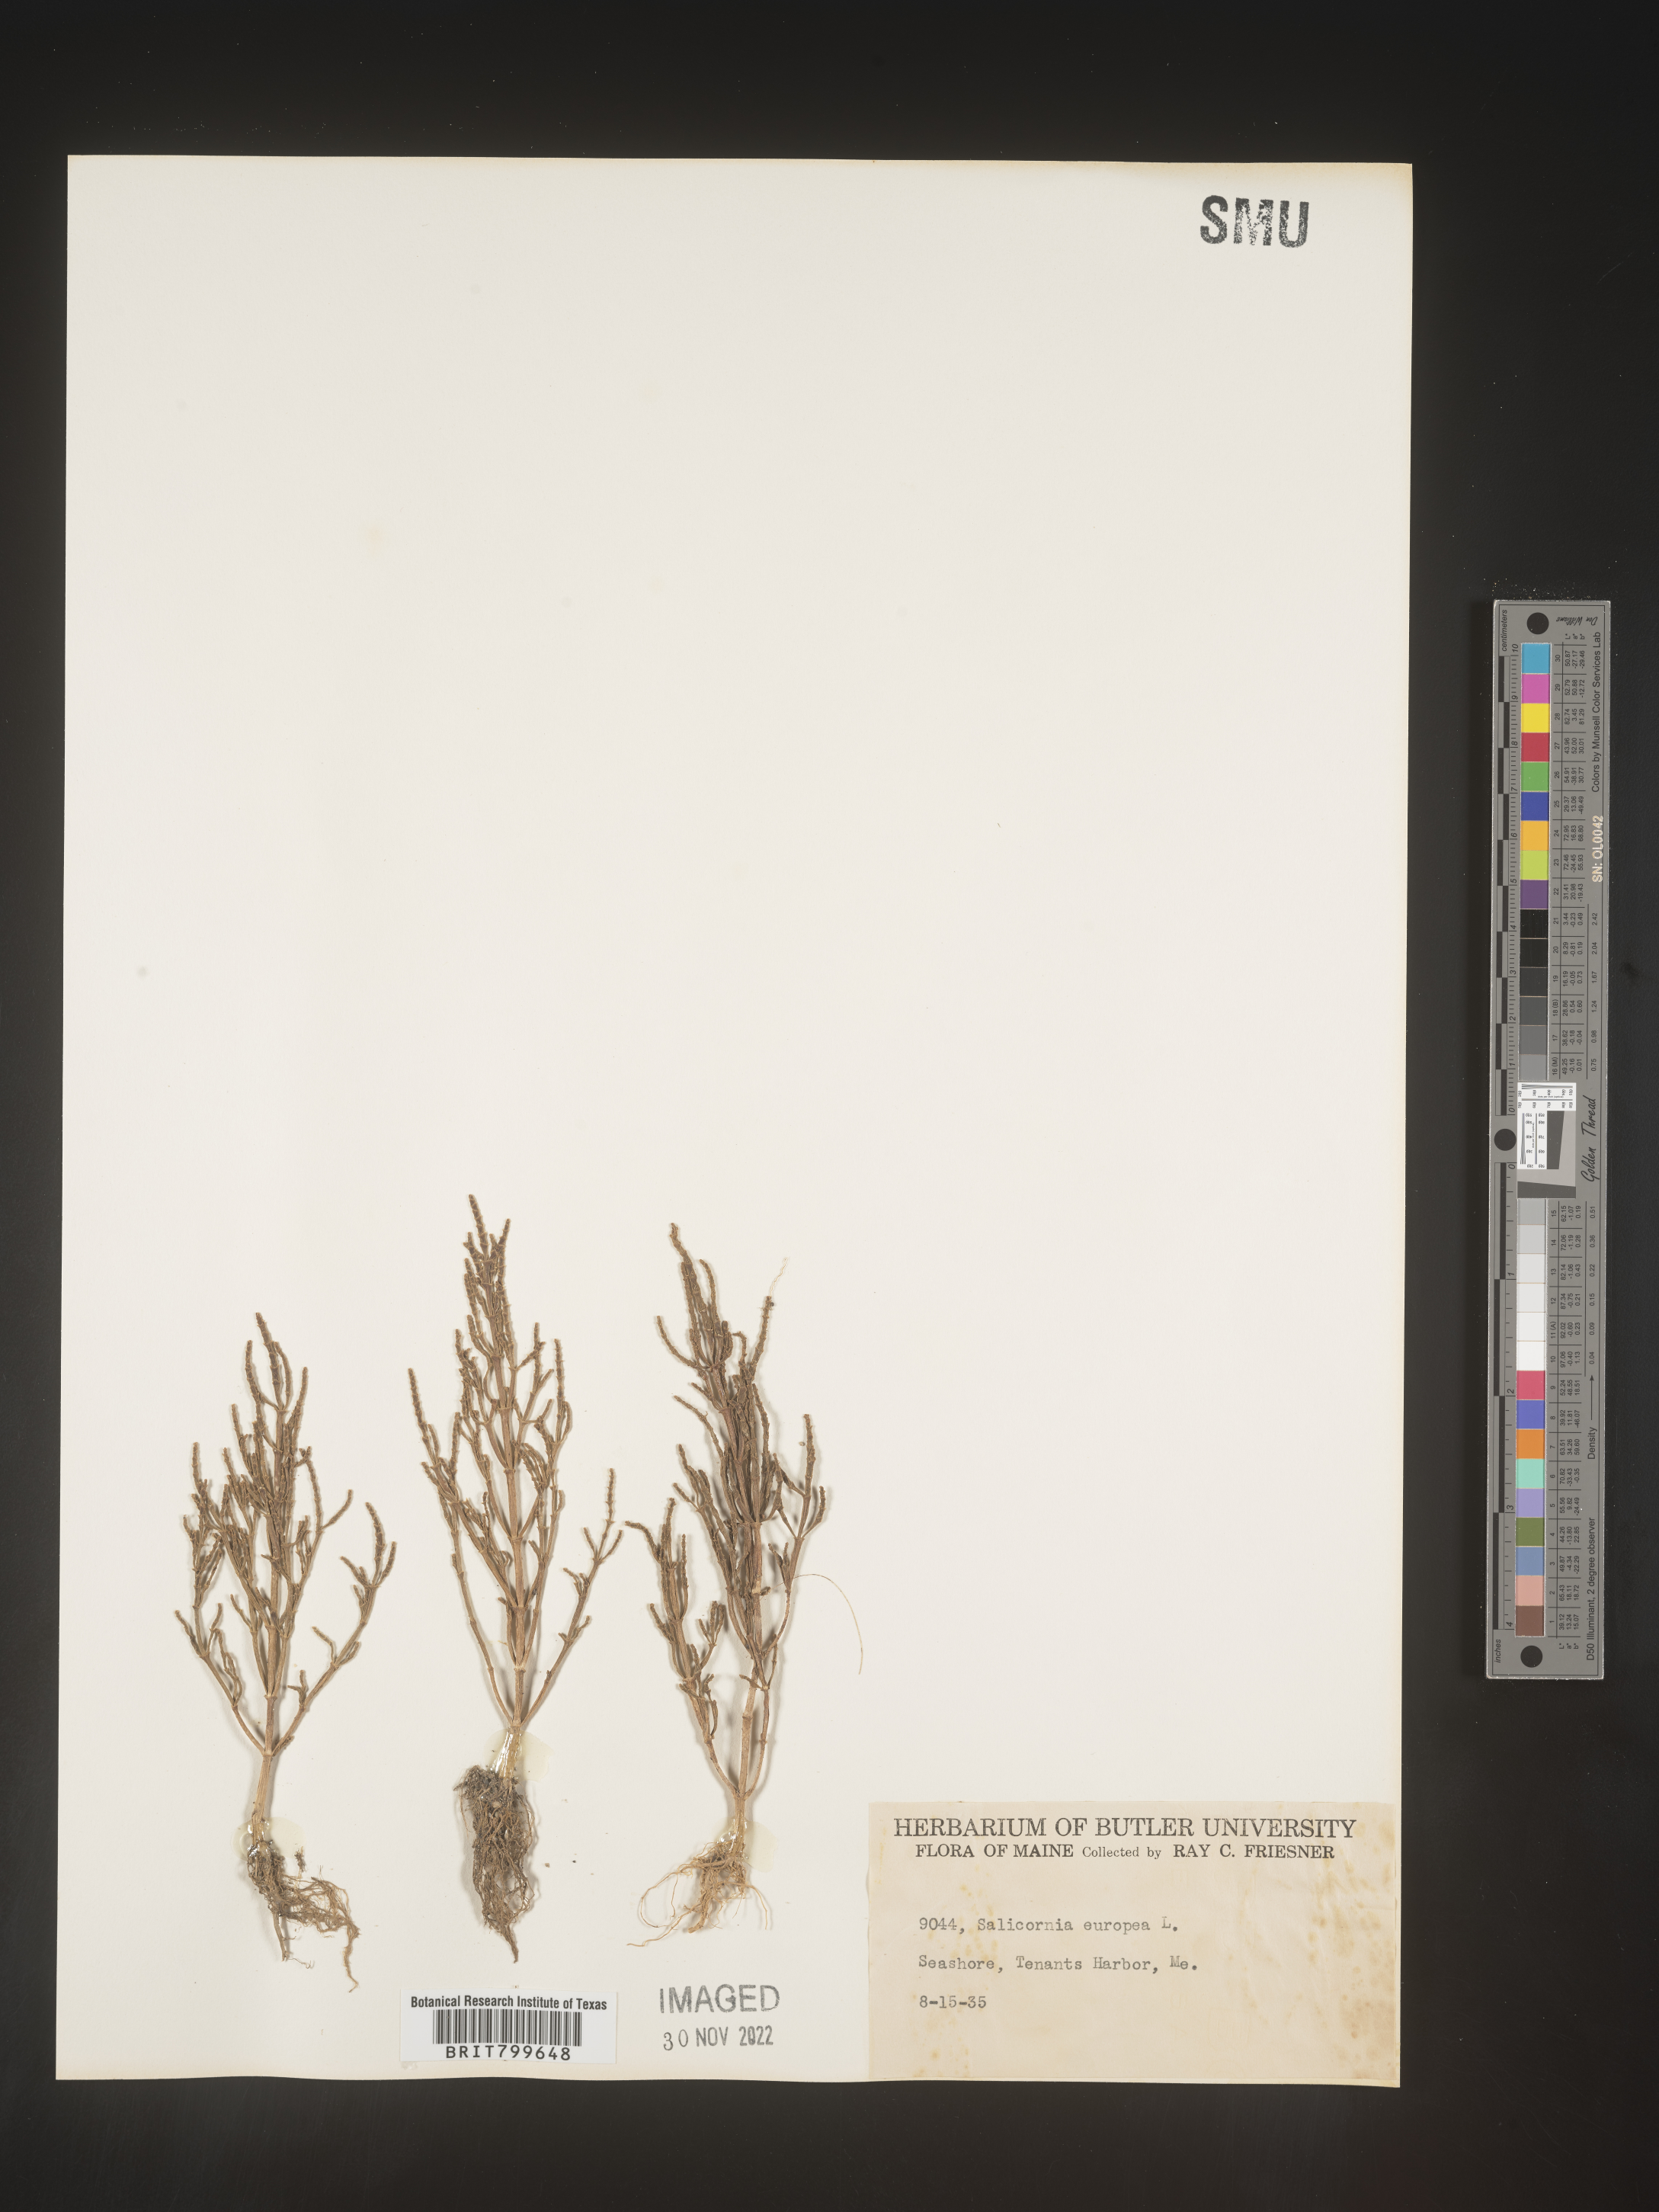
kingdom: Plantae
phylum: Tracheophyta
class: Magnoliopsida
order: Caryophyllales
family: Amaranthaceae
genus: Salicornia
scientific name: Salicornia europaea
